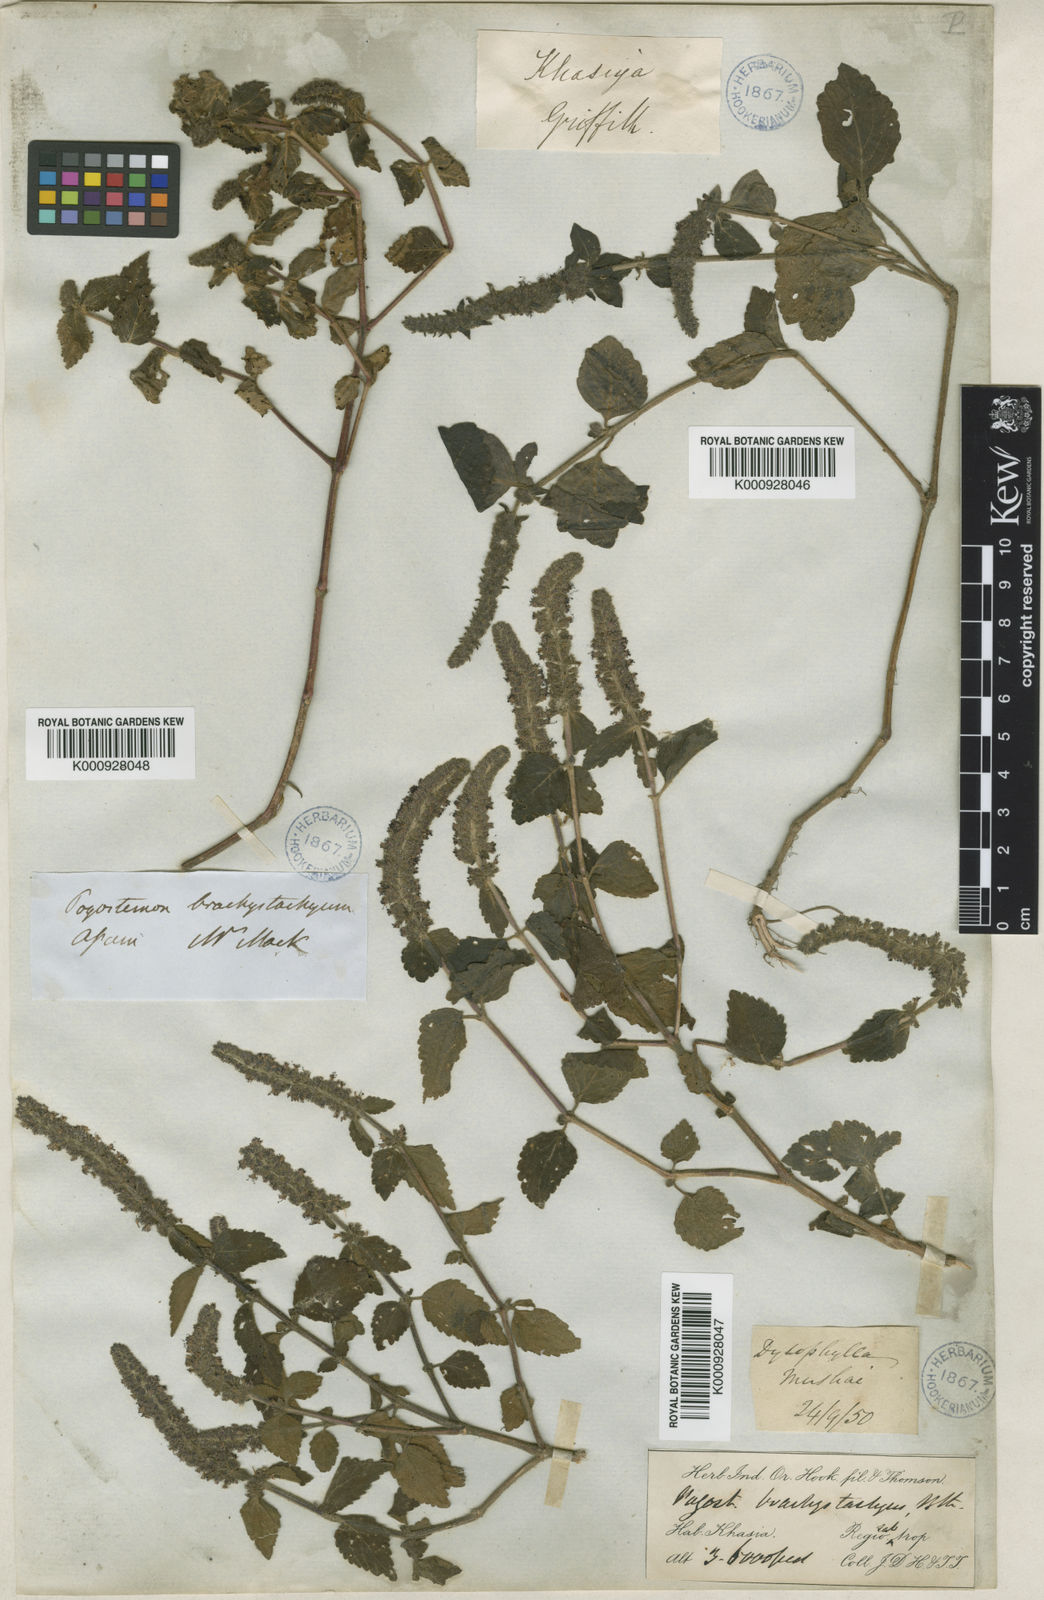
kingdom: Plantae
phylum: Tracheophyta
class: Magnoliopsida
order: Lamiales
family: Lamiaceae
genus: Pogostemon
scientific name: Pogostemon brachystachyus
